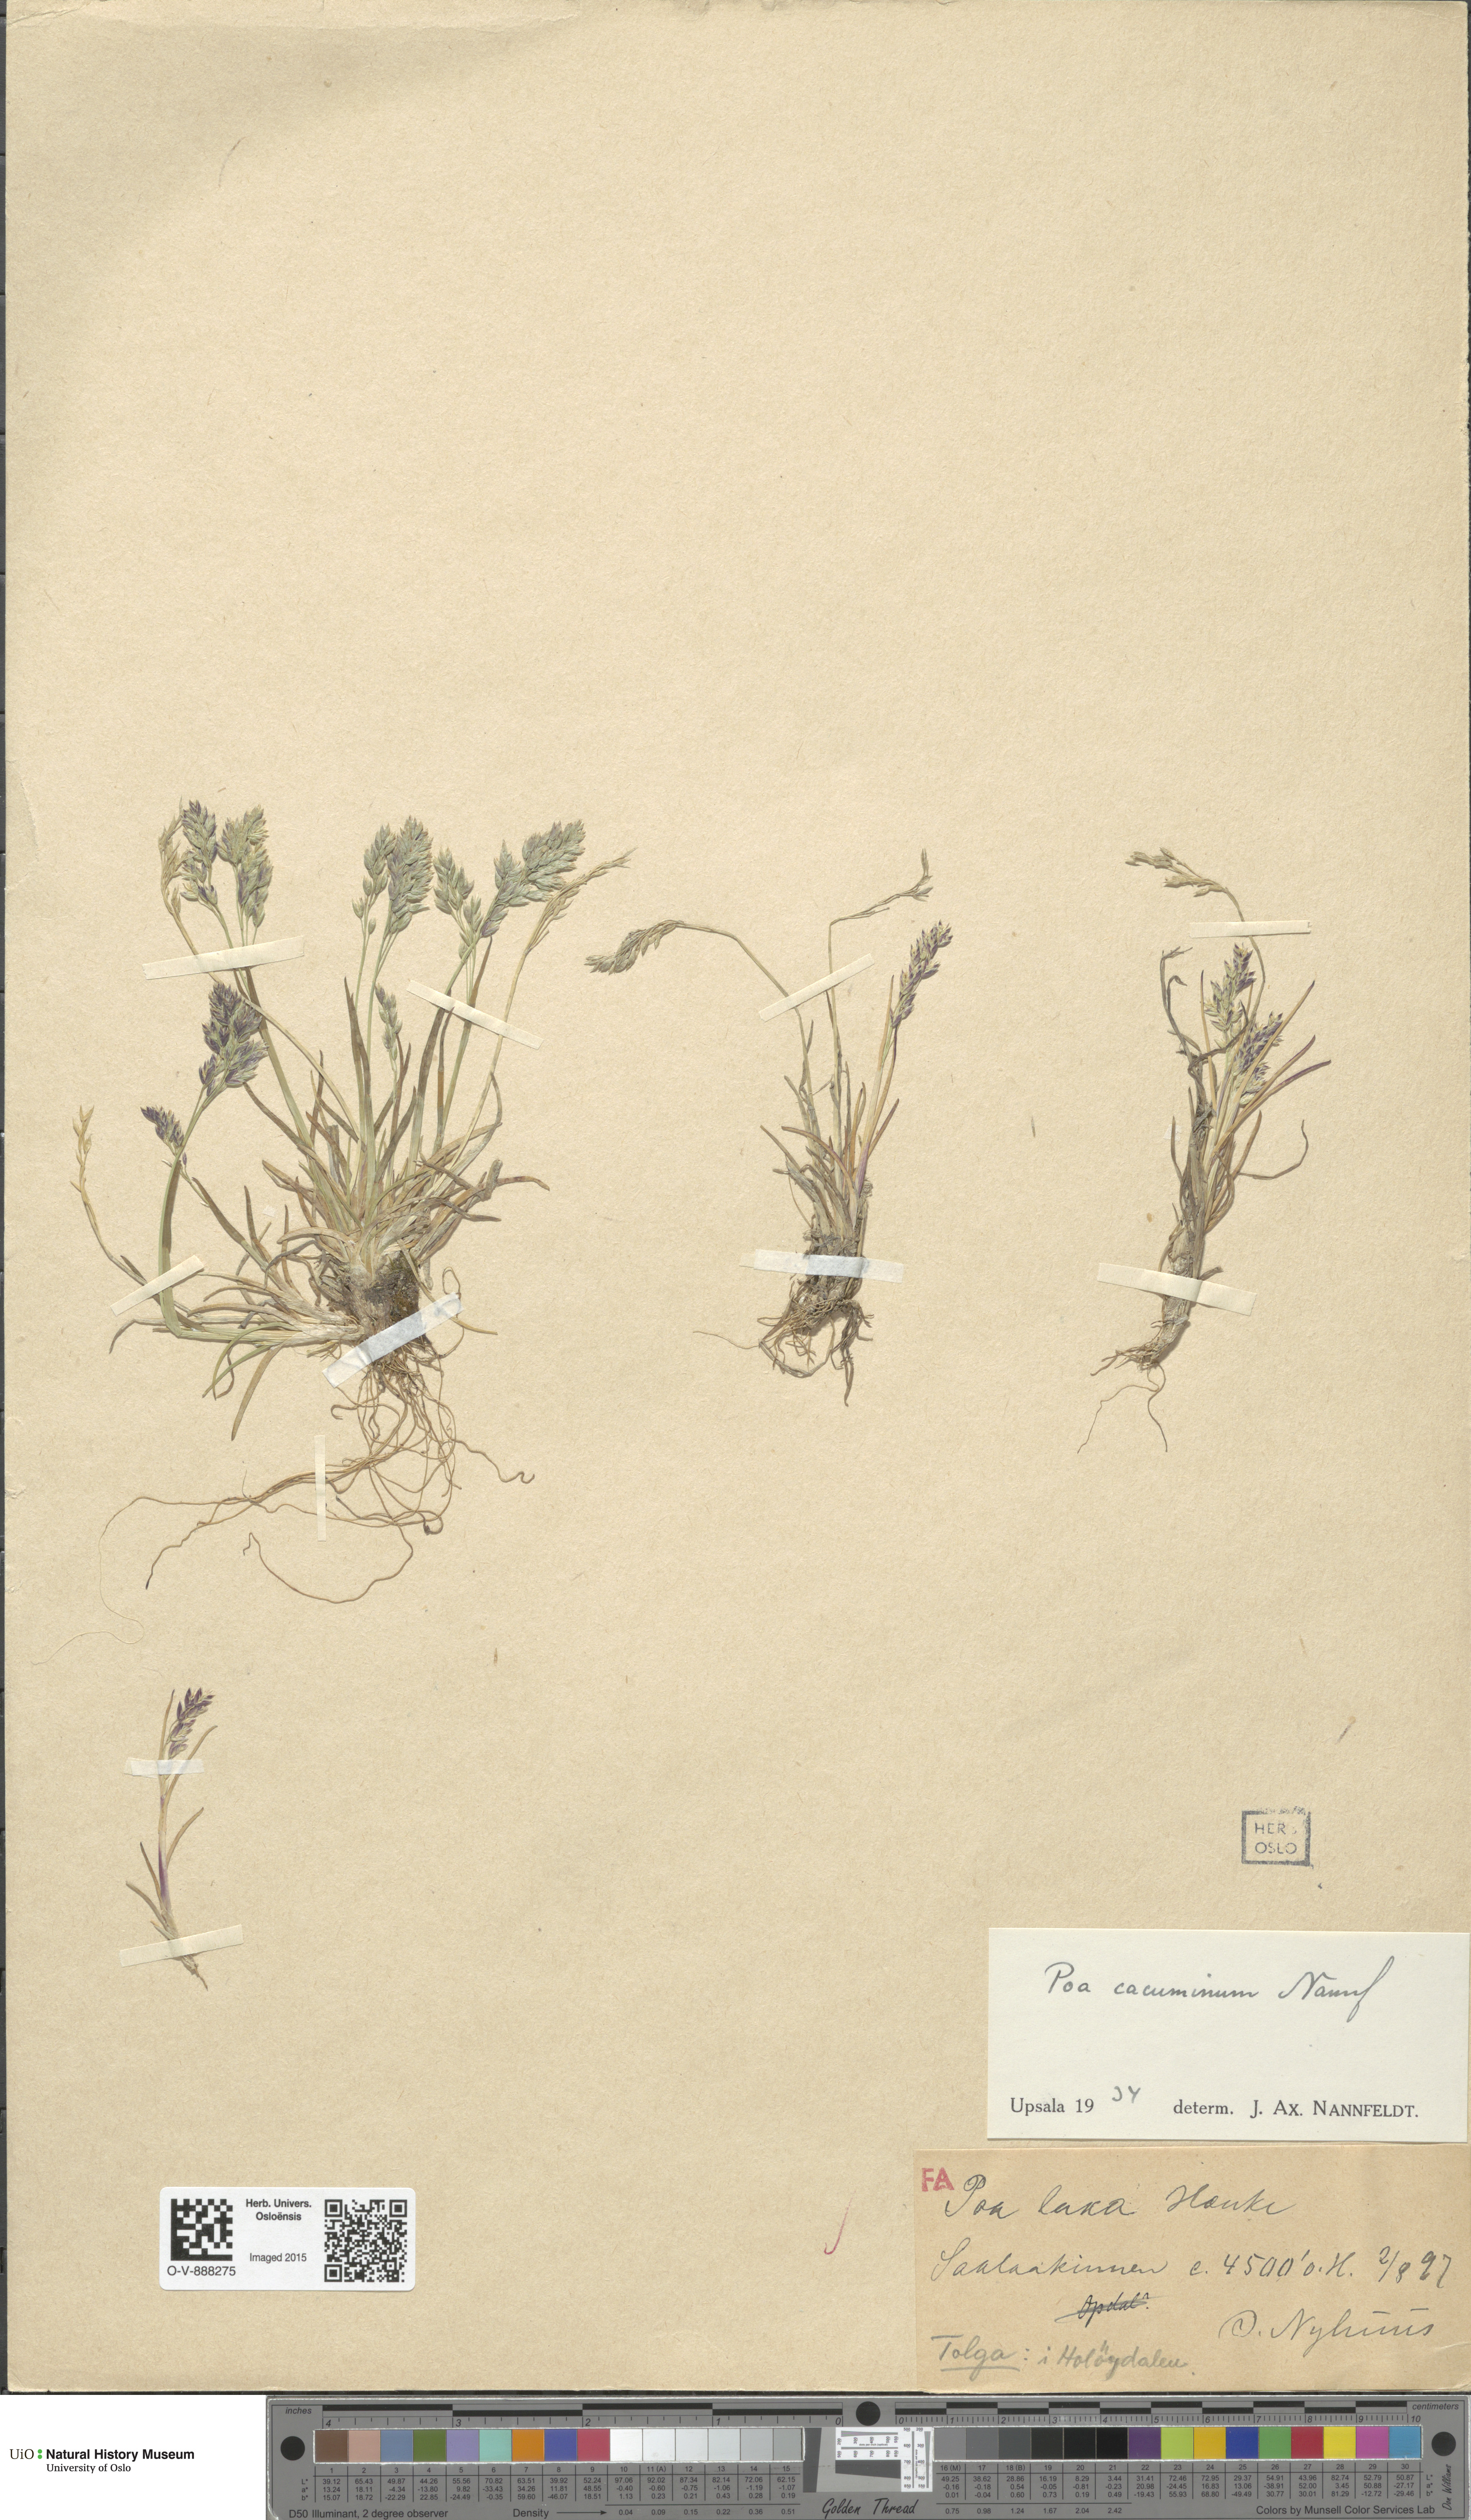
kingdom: Plantae
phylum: Tracheophyta
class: Liliopsida
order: Poales
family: Poaceae
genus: Poa
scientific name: Poa flexuosa
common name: Wavy meadow-grass
